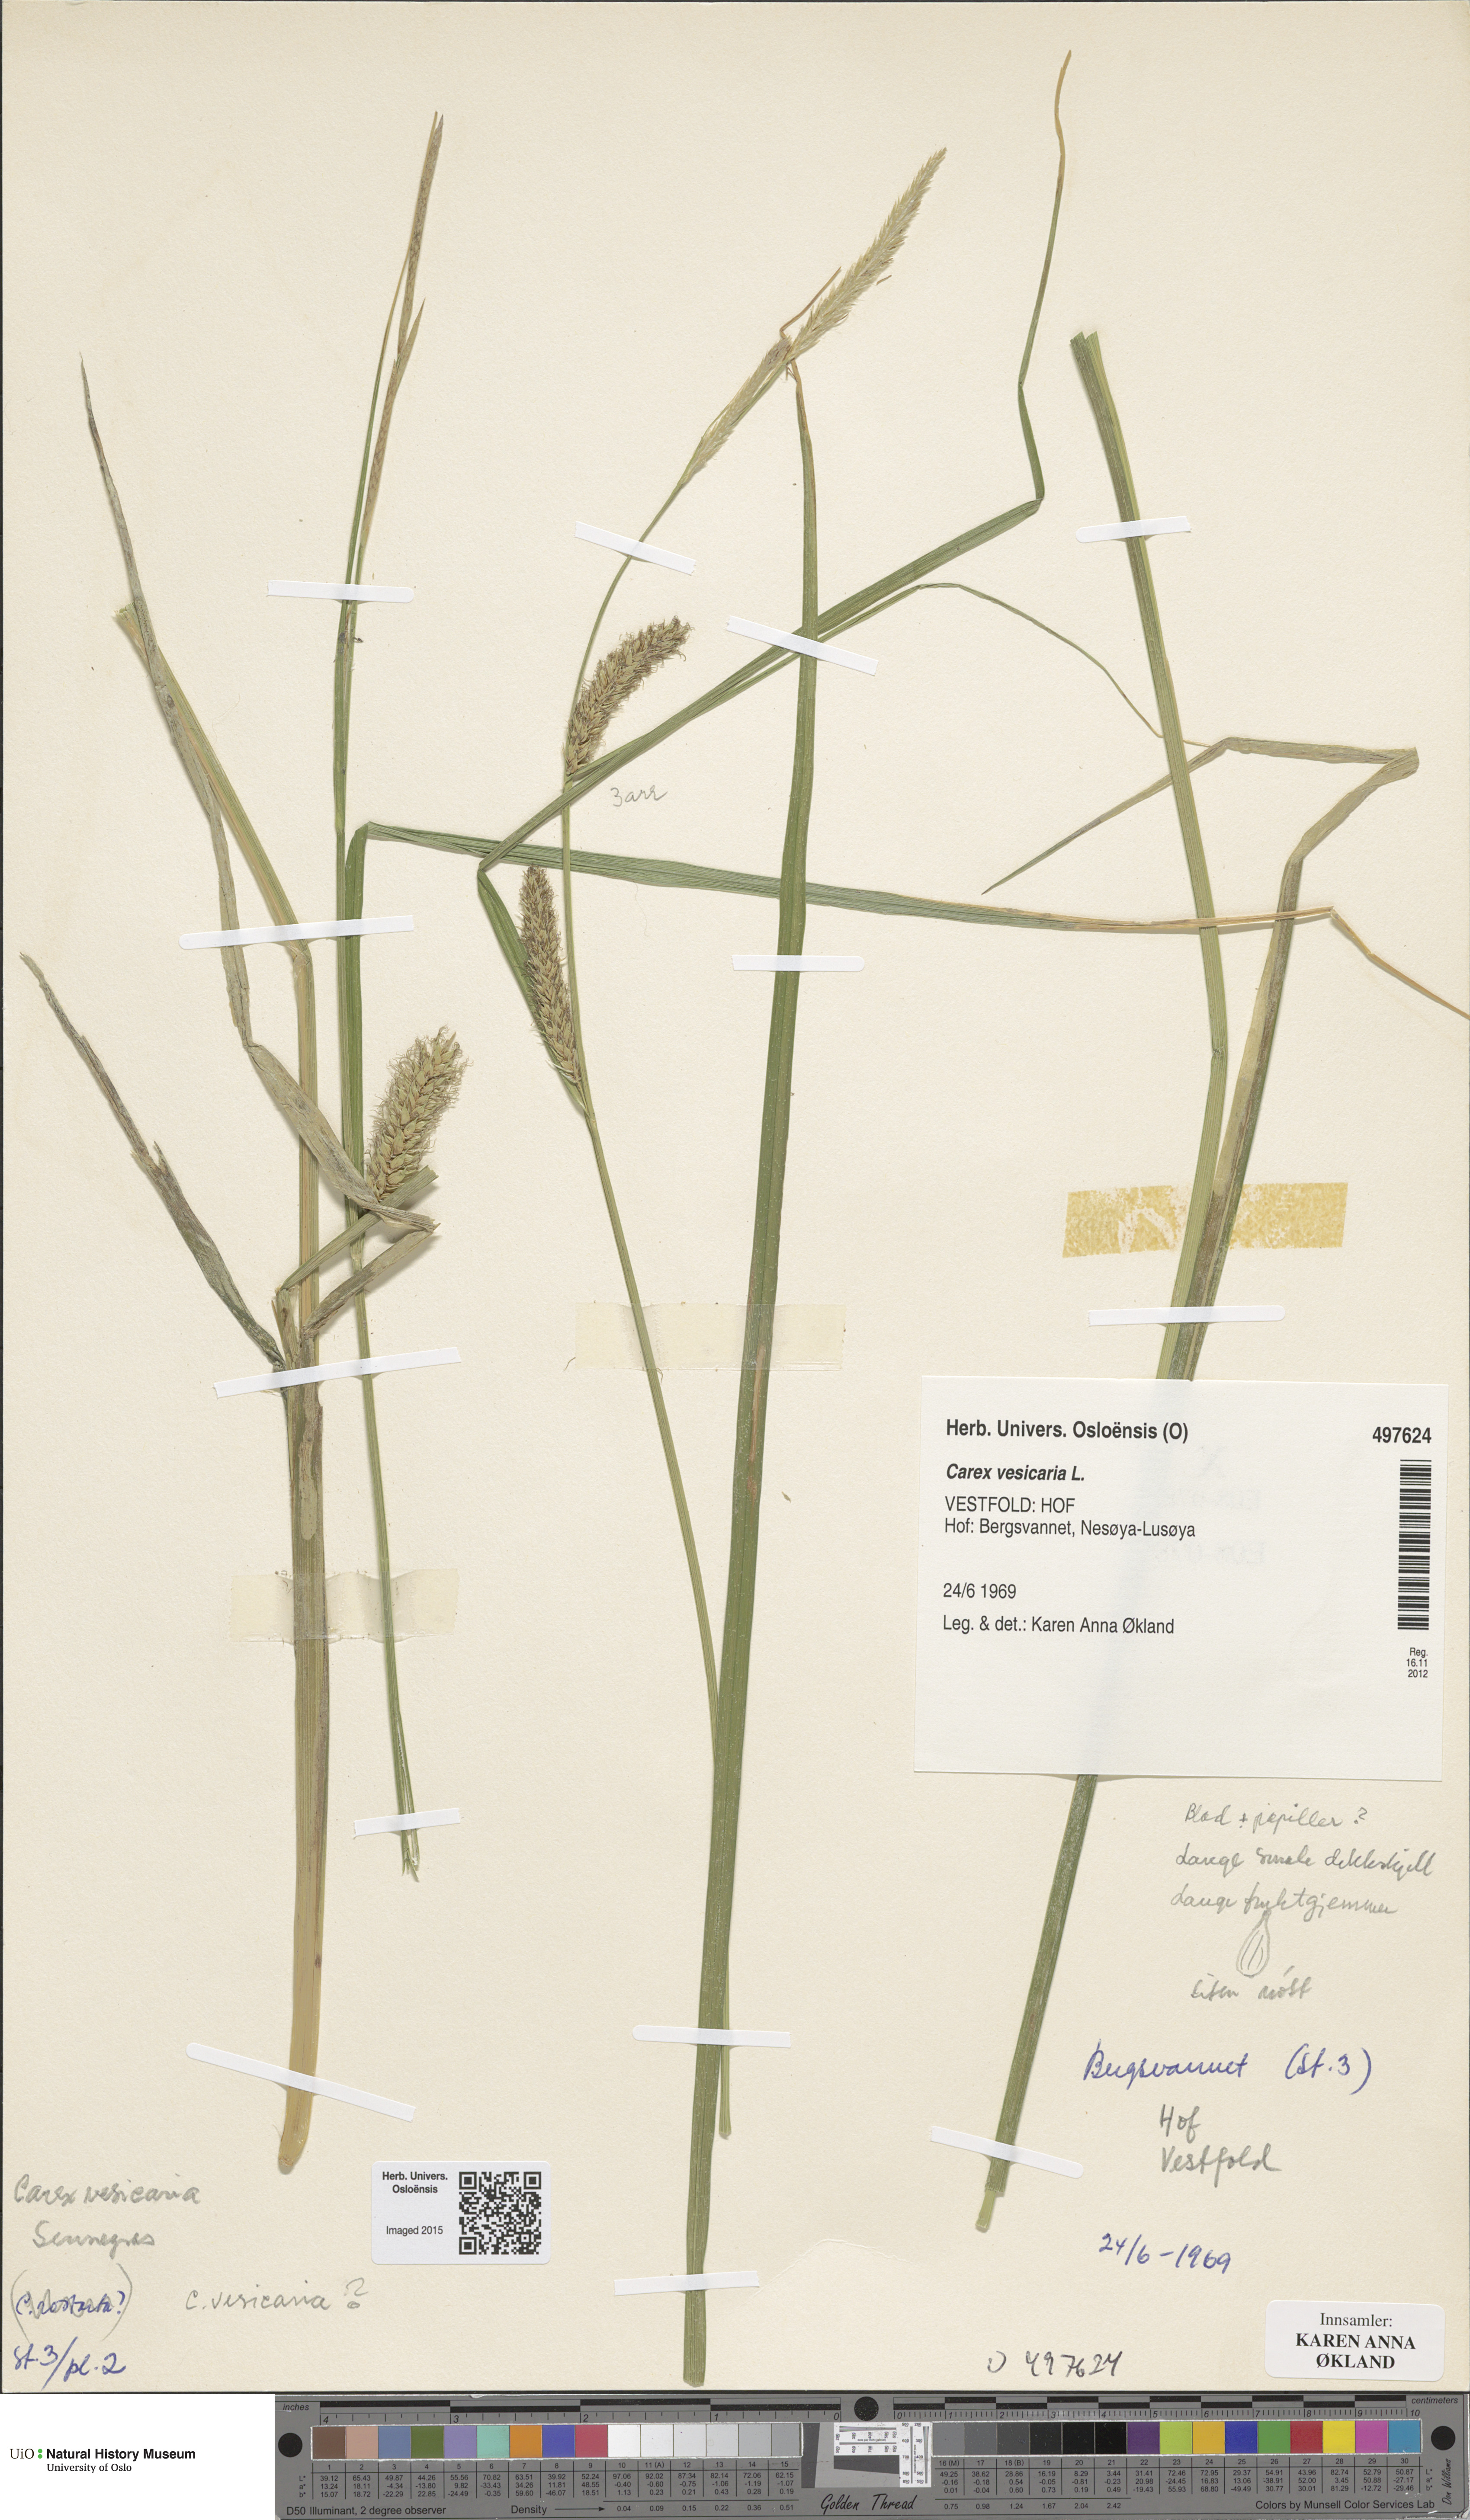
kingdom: Plantae
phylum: Tracheophyta
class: Liliopsida
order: Poales
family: Cyperaceae
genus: Carex
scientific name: Carex vesicaria
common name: Bladder-sedge
